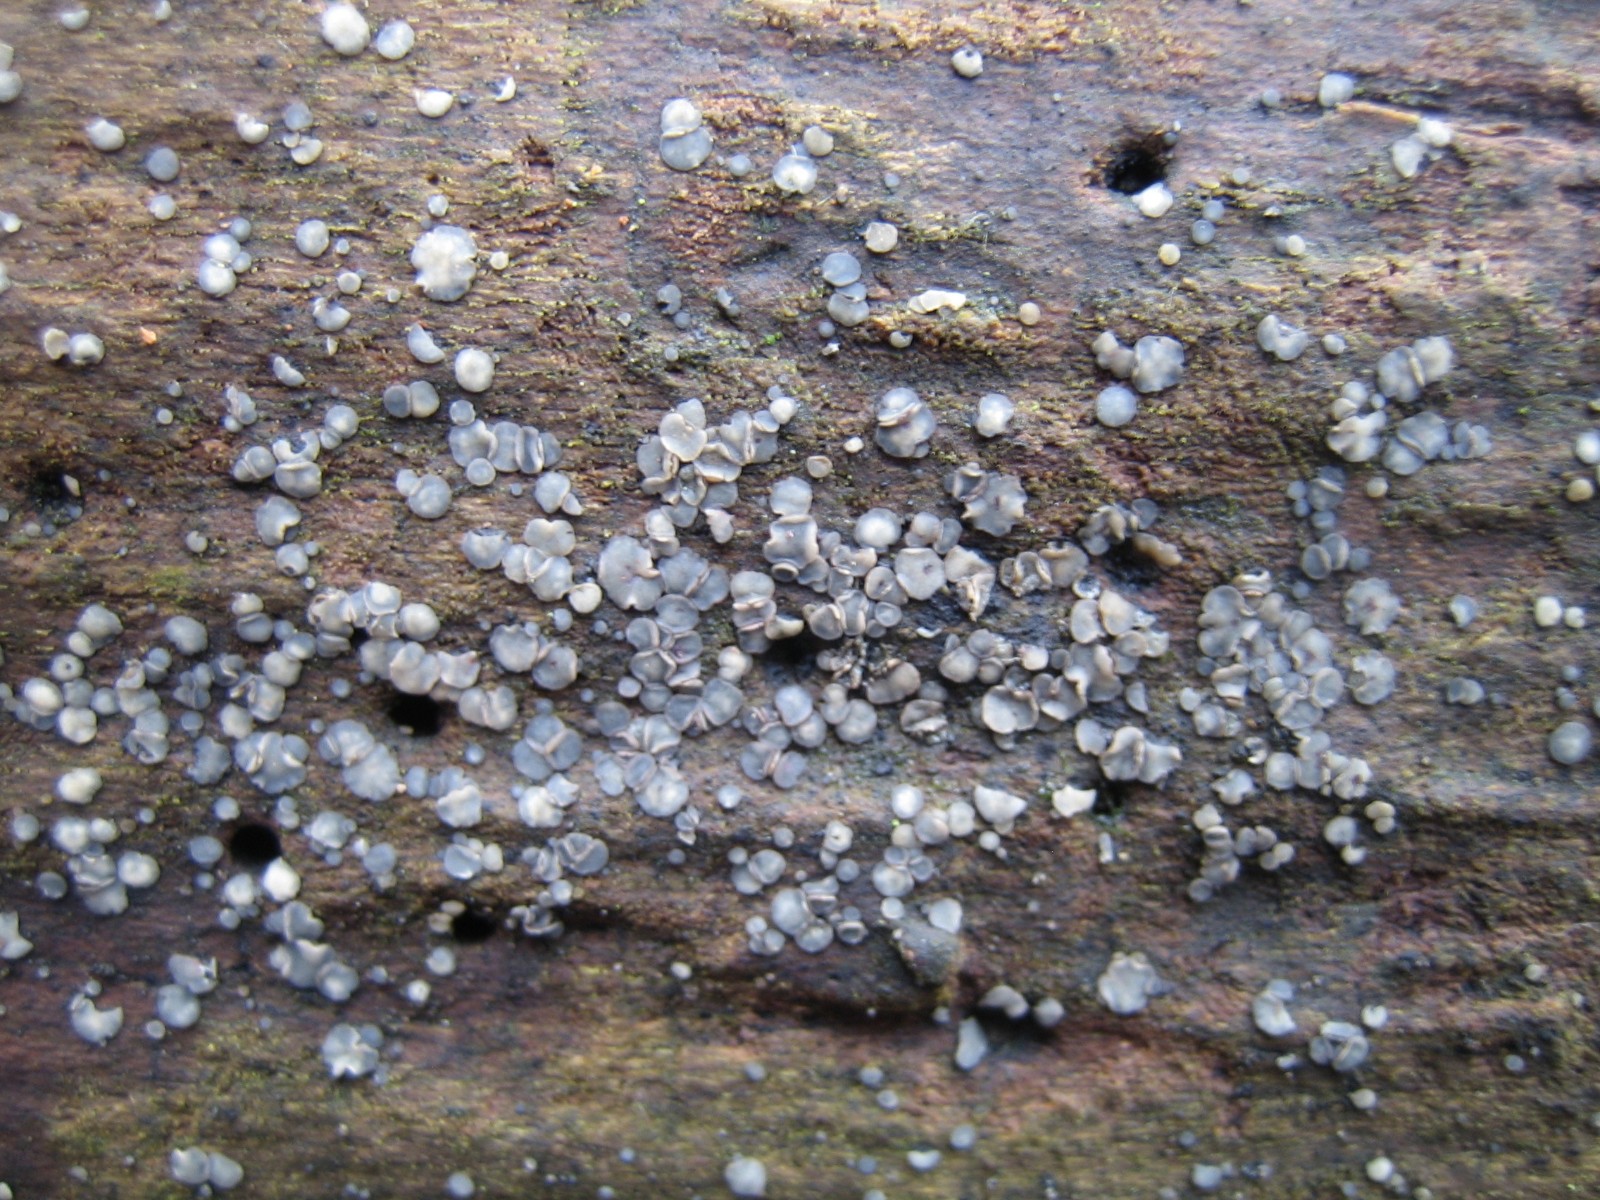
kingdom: Fungi
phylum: Ascomycota
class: Leotiomycetes
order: Helotiales
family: Mollisiaceae
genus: Mollisia
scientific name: Mollisia cinerea
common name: almindelig gråskive
